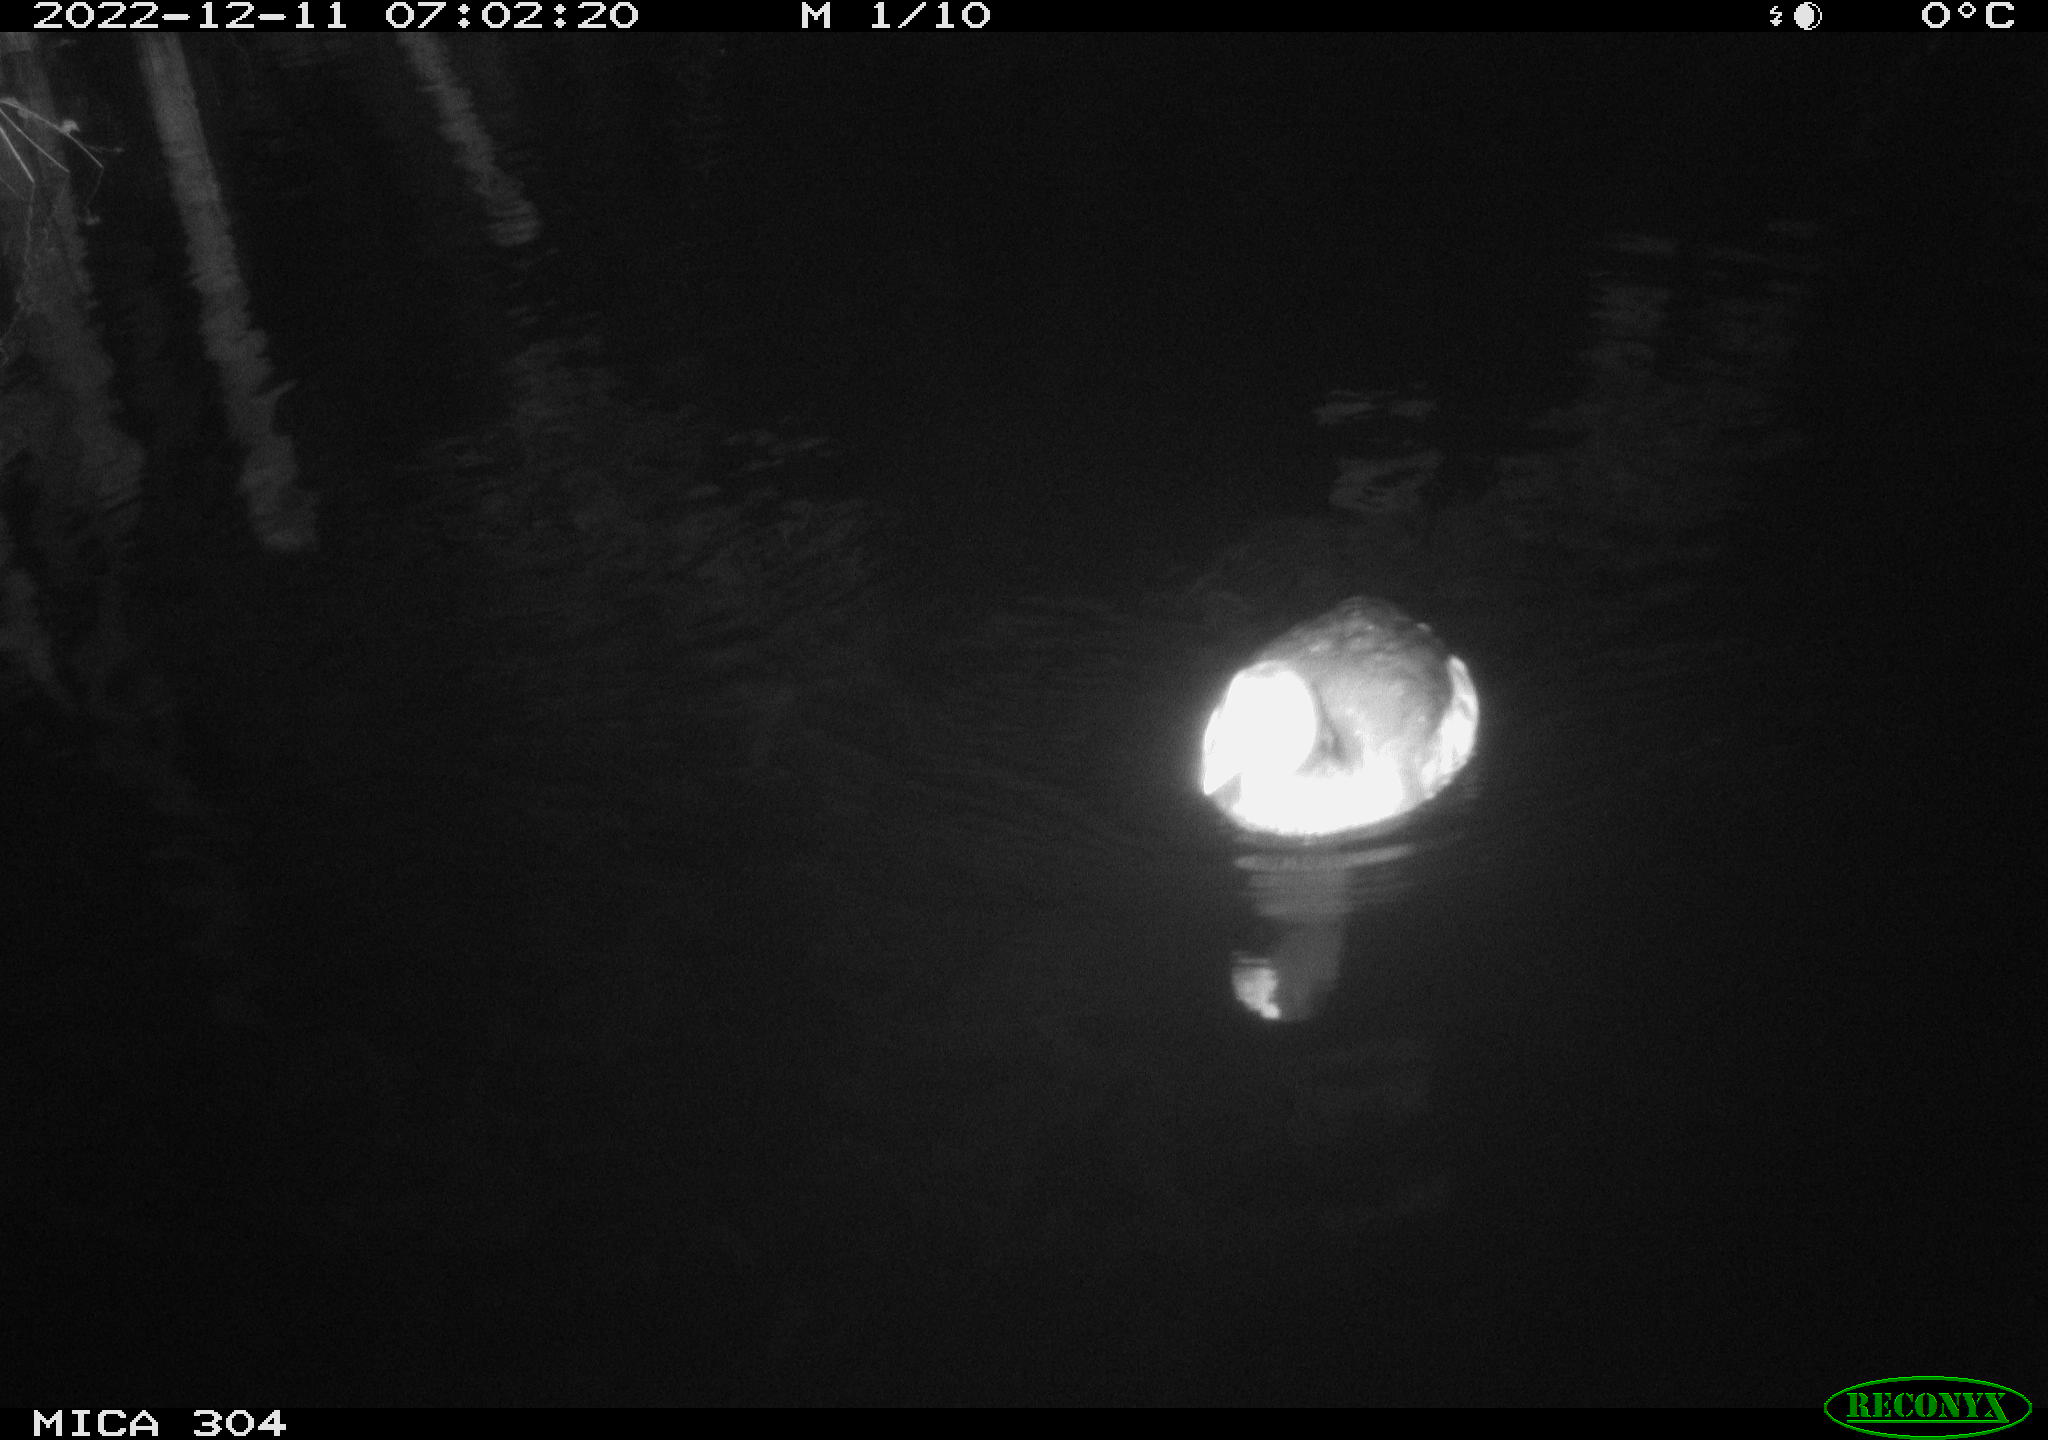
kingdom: Animalia
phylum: Chordata
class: Aves
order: Anseriformes
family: Anatidae
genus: Anas
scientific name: Anas
